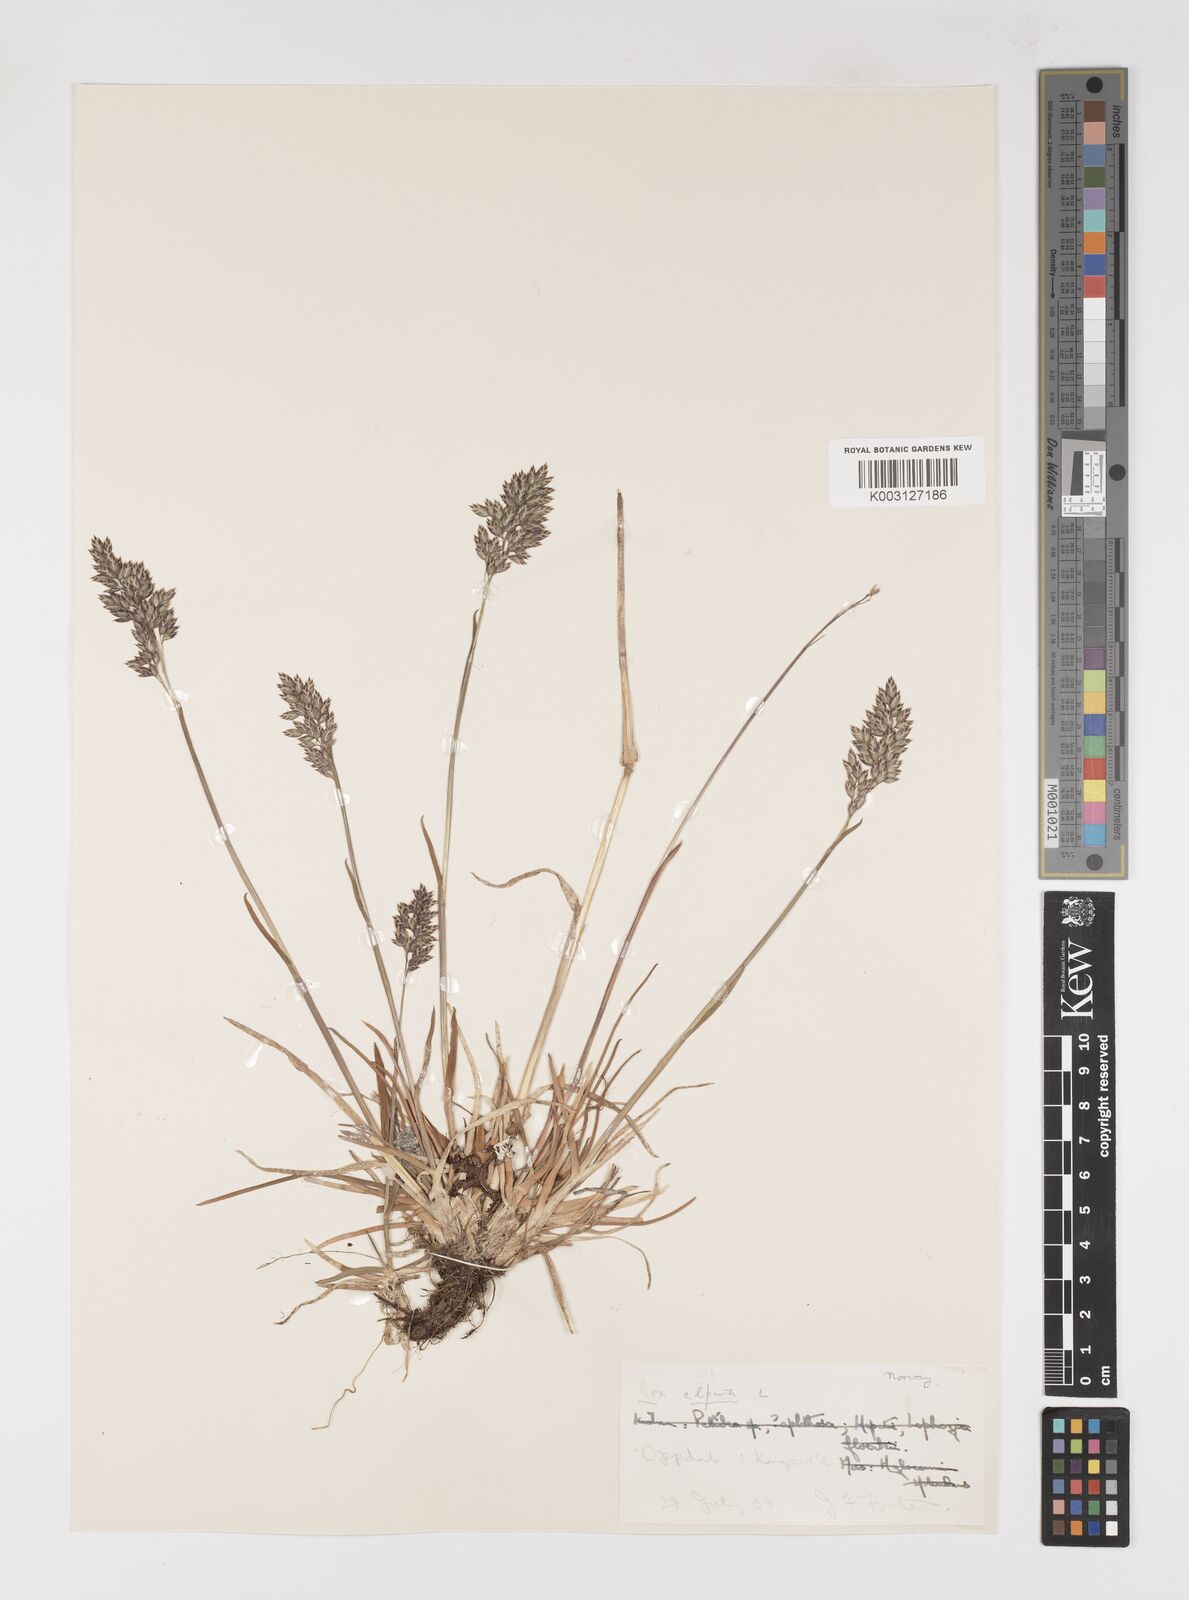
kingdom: Plantae
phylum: Tracheophyta
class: Liliopsida
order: Poales
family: Poaceae
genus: Poa
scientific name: Poa alpina
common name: Alpine bluegrass
